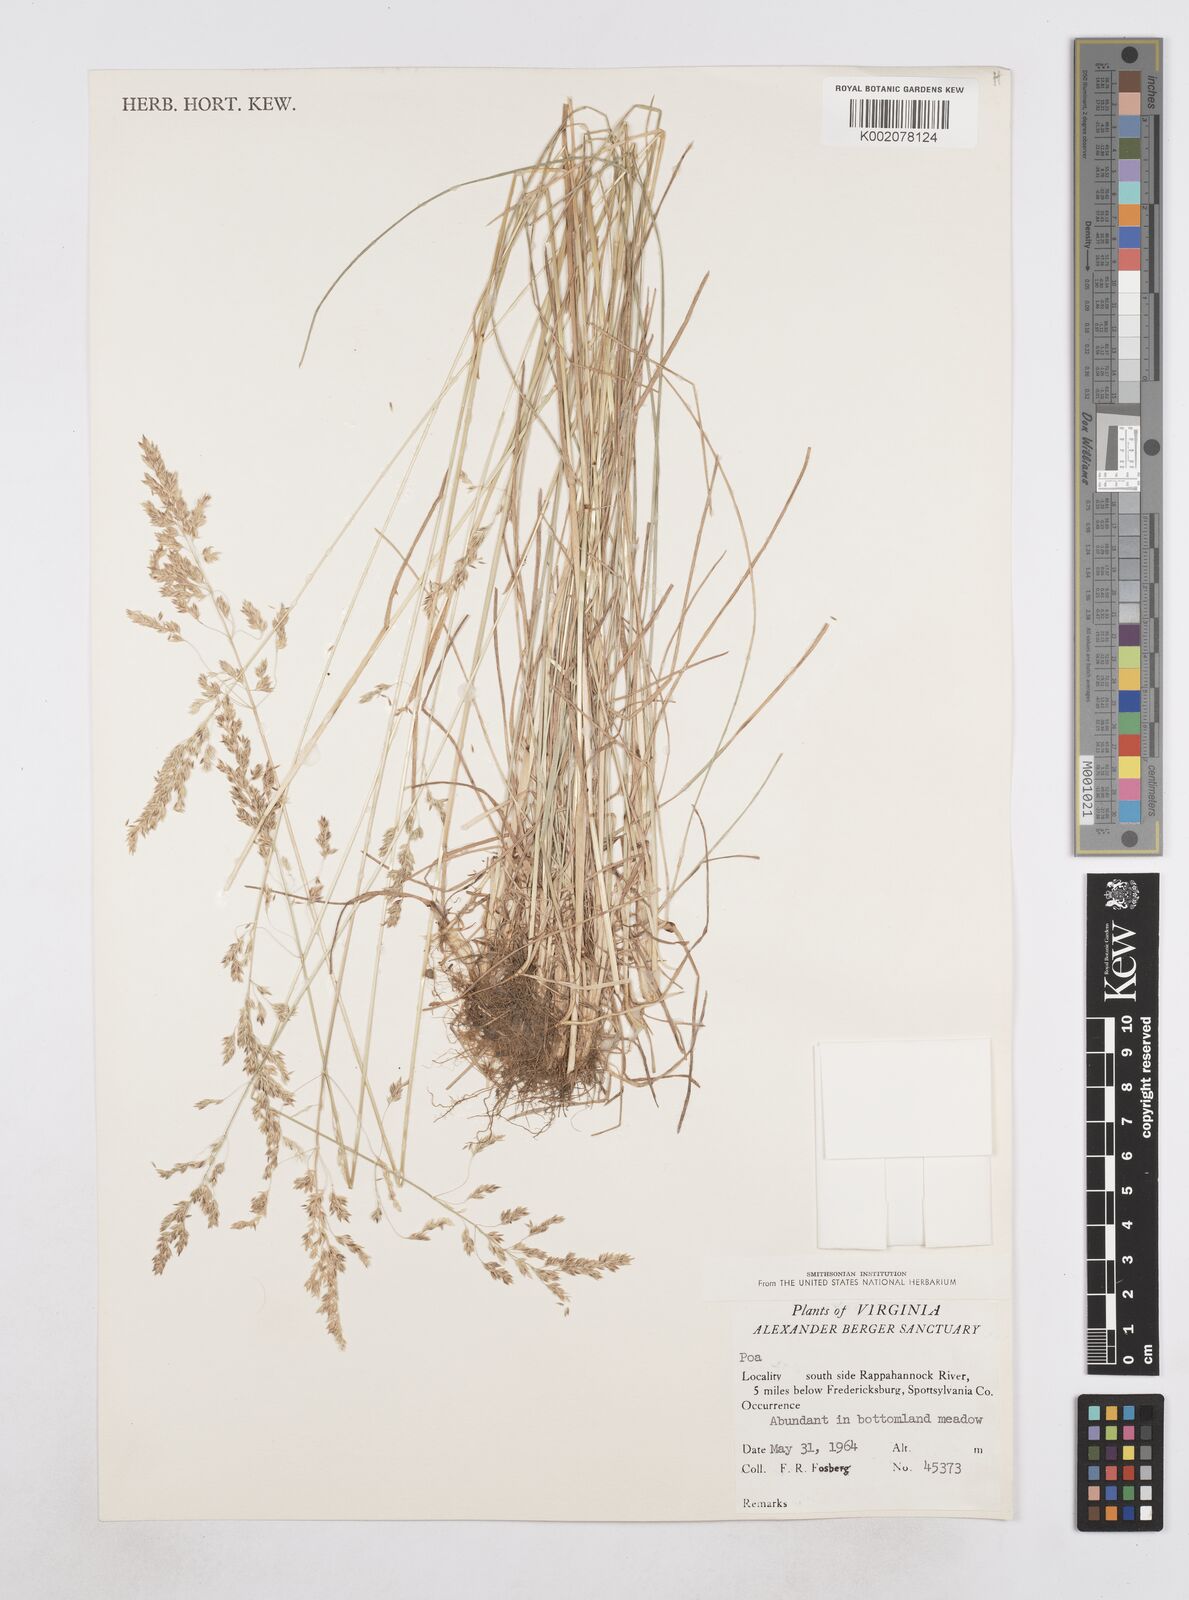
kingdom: Plantae
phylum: Tracheophyta
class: Liliopsida
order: Poales
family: Poaceae
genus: Poa
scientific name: Poa
